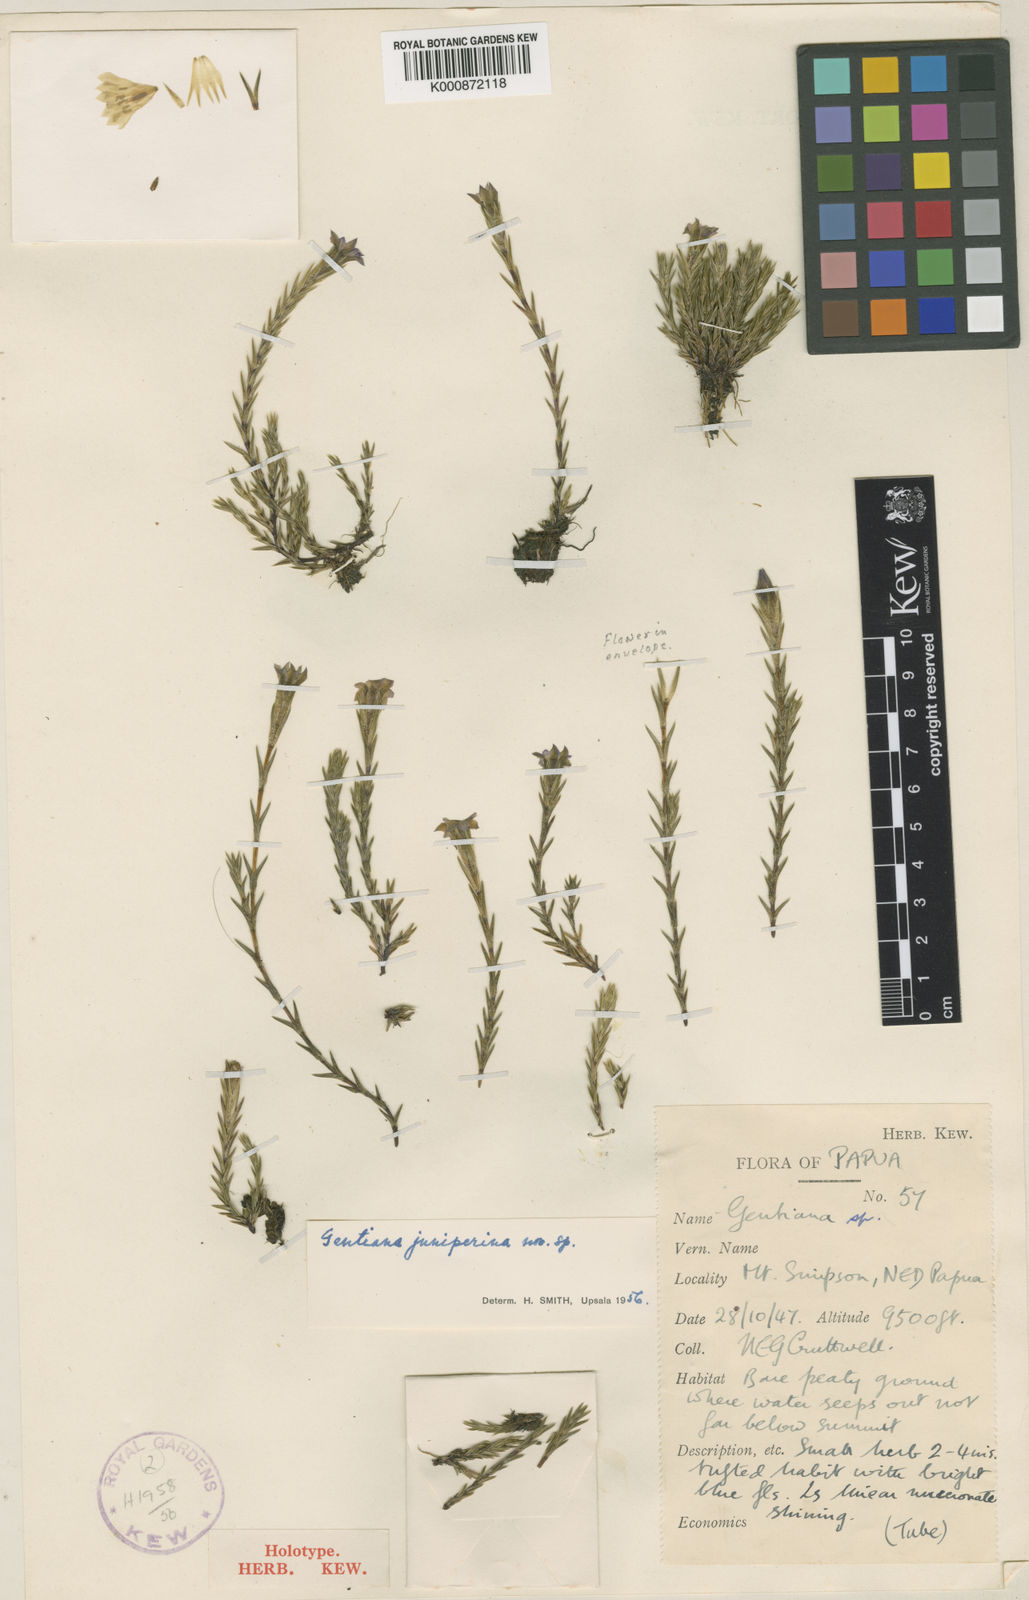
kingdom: Plantae
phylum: Tracheophyta
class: Magnoliopsida
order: Gentianales
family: Gentianaceae
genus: Gentiana
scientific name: Gentiana
